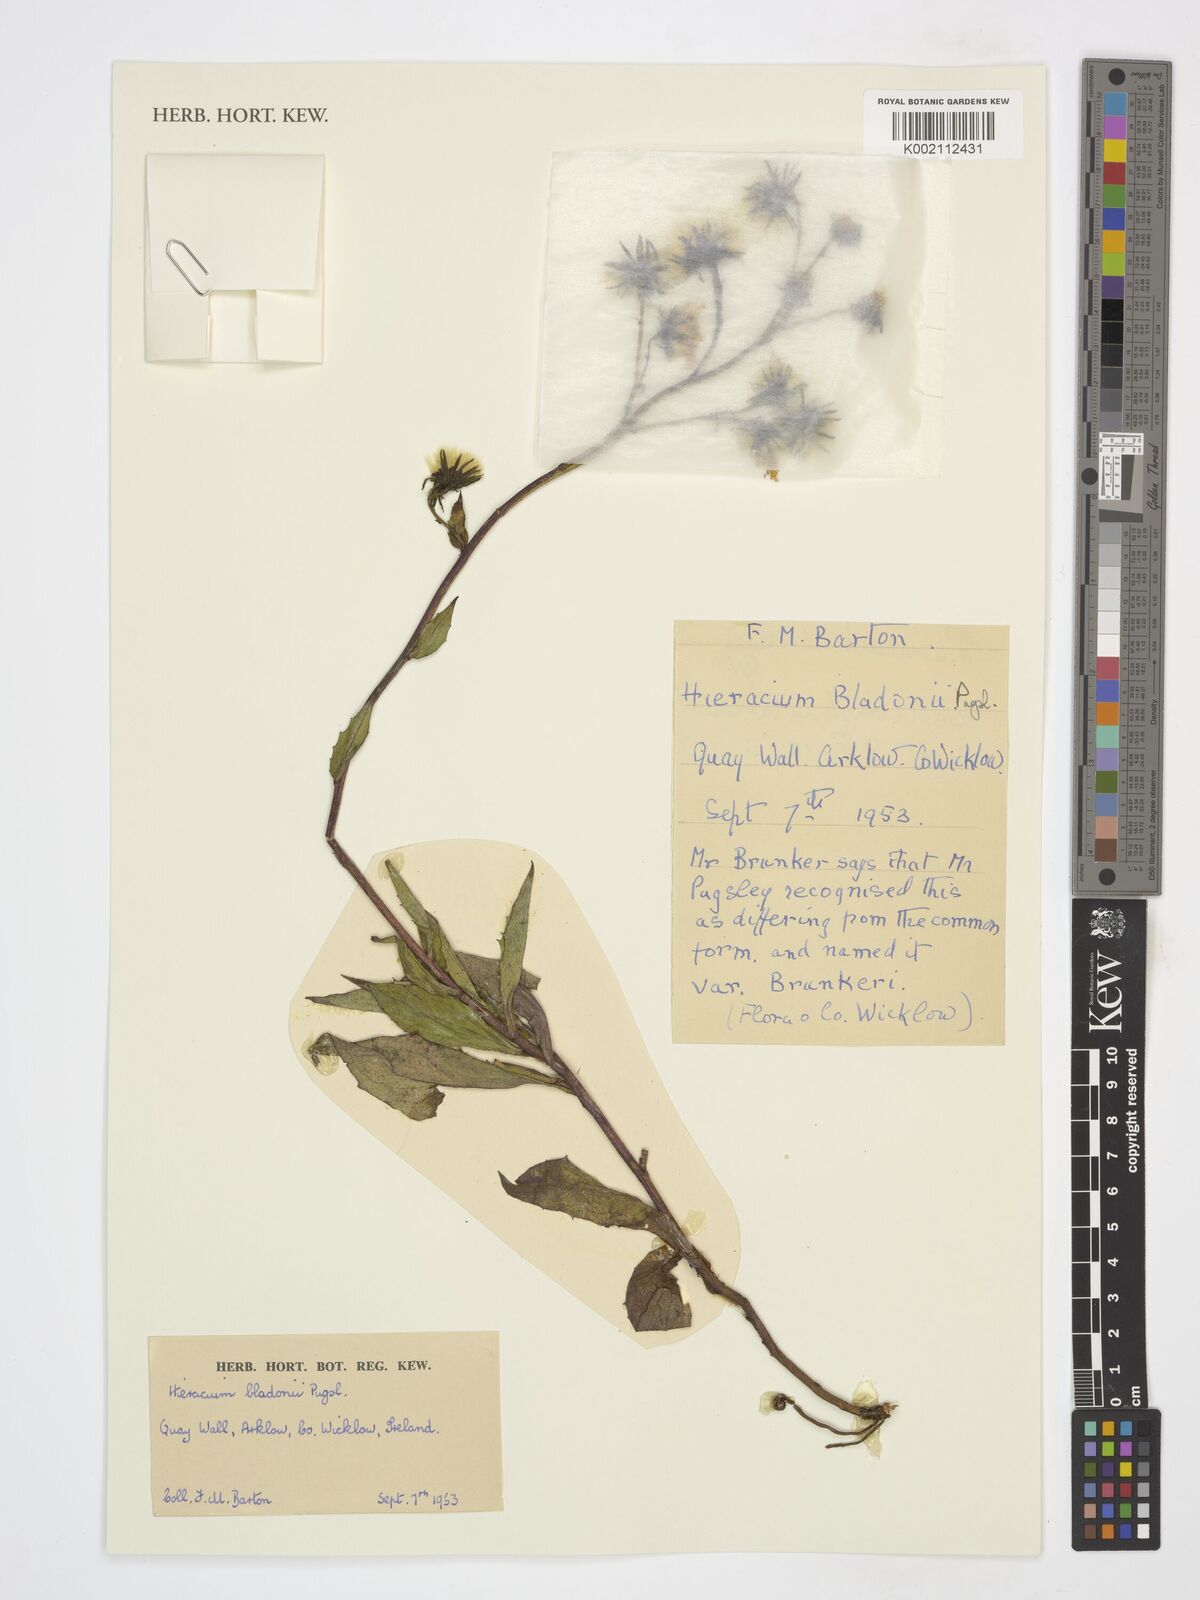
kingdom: Plantae
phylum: Tracheophyta
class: Magnoliopsida
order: Asterales
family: Asteraceae
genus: Hieracium
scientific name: Hieracium sabaudum
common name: New england hawkweed
